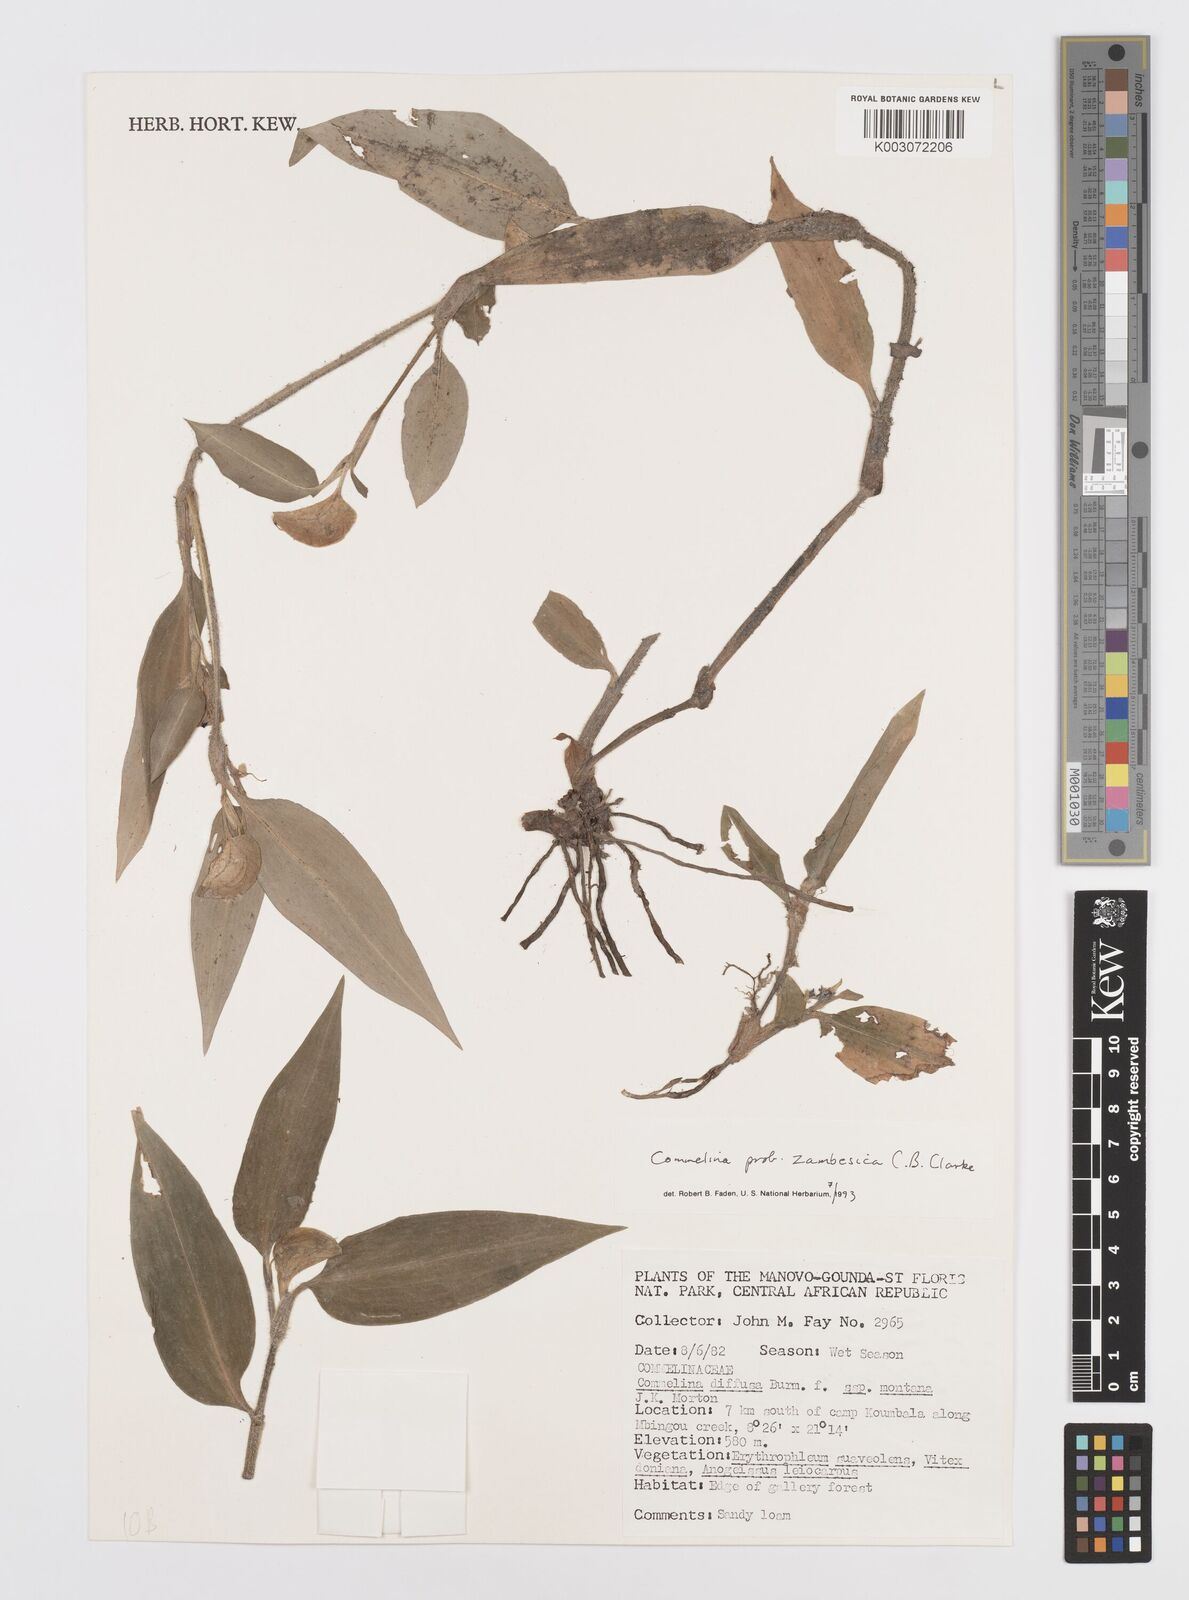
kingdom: Plantae
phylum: Tracheophyta
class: Liliopsida
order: Commelinales
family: Commelinaceae
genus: Commelina
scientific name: Commelina zambesica
